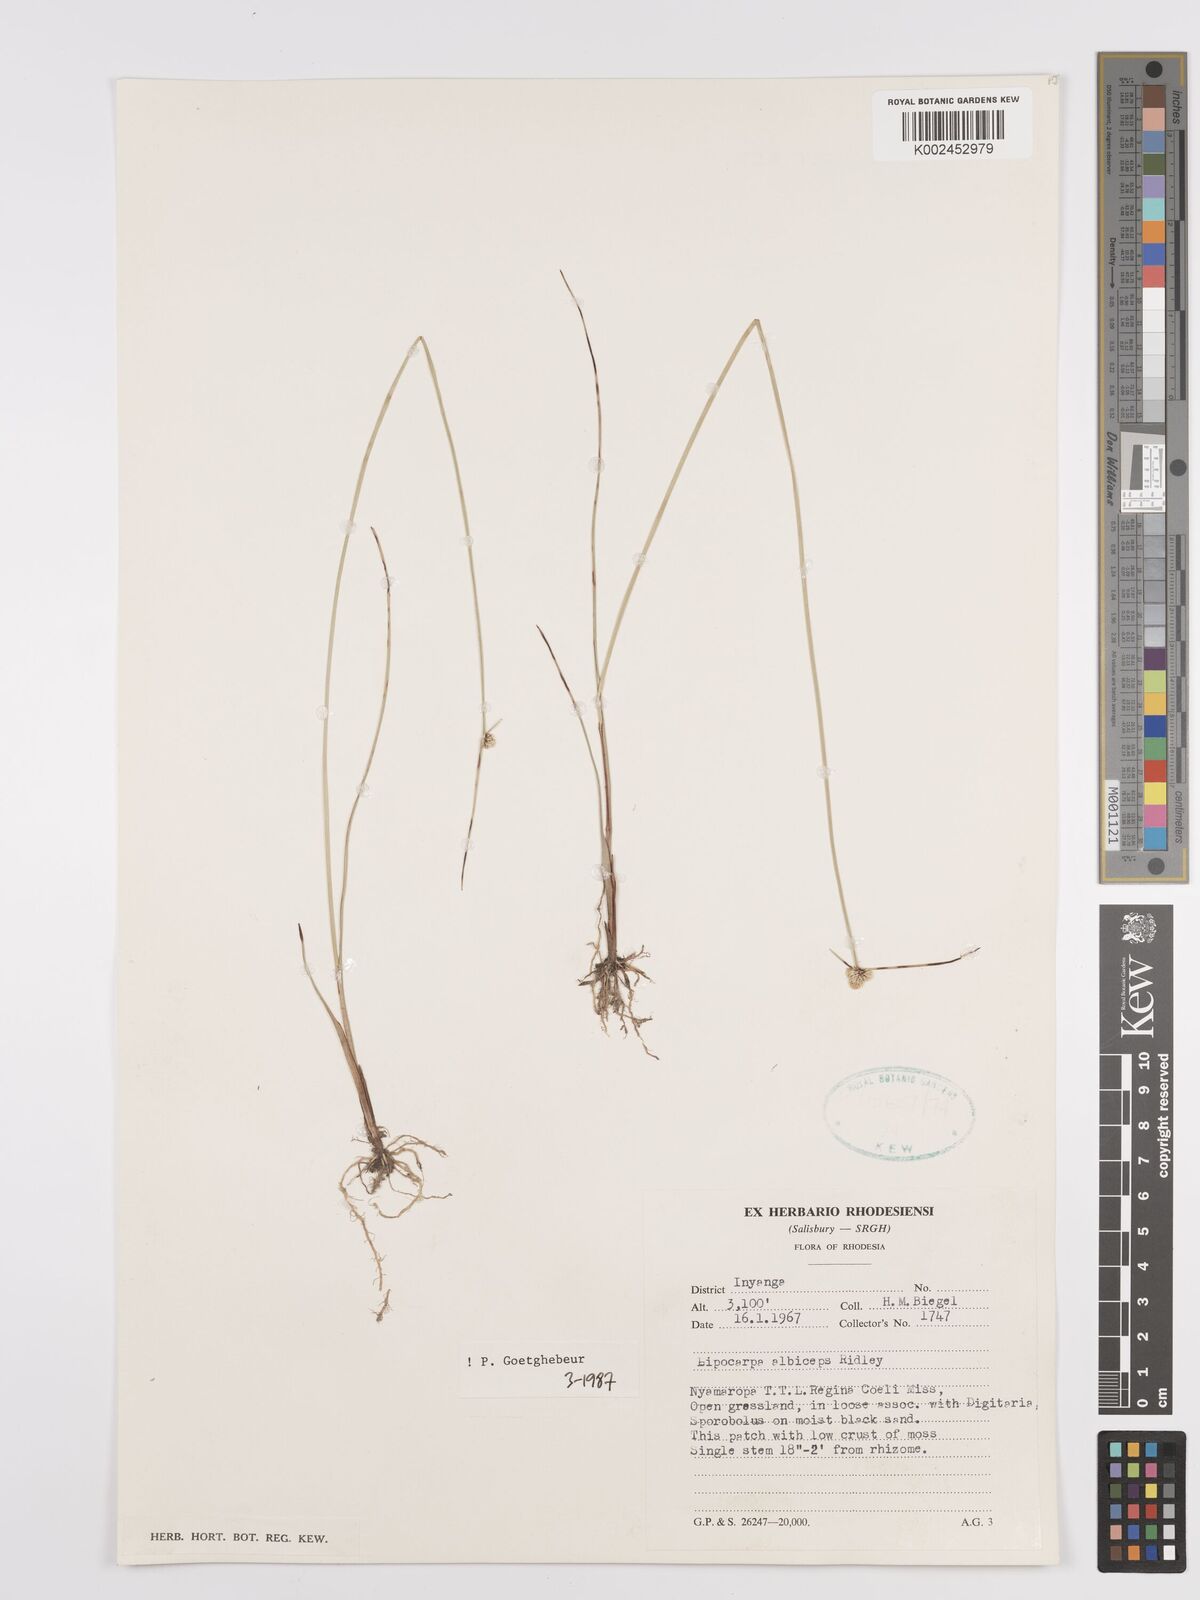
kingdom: Plantae
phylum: Tracheophyta
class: Liliopsida
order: Poales
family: Cyperaceae
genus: Cyperus
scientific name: Cyperus albiceps
